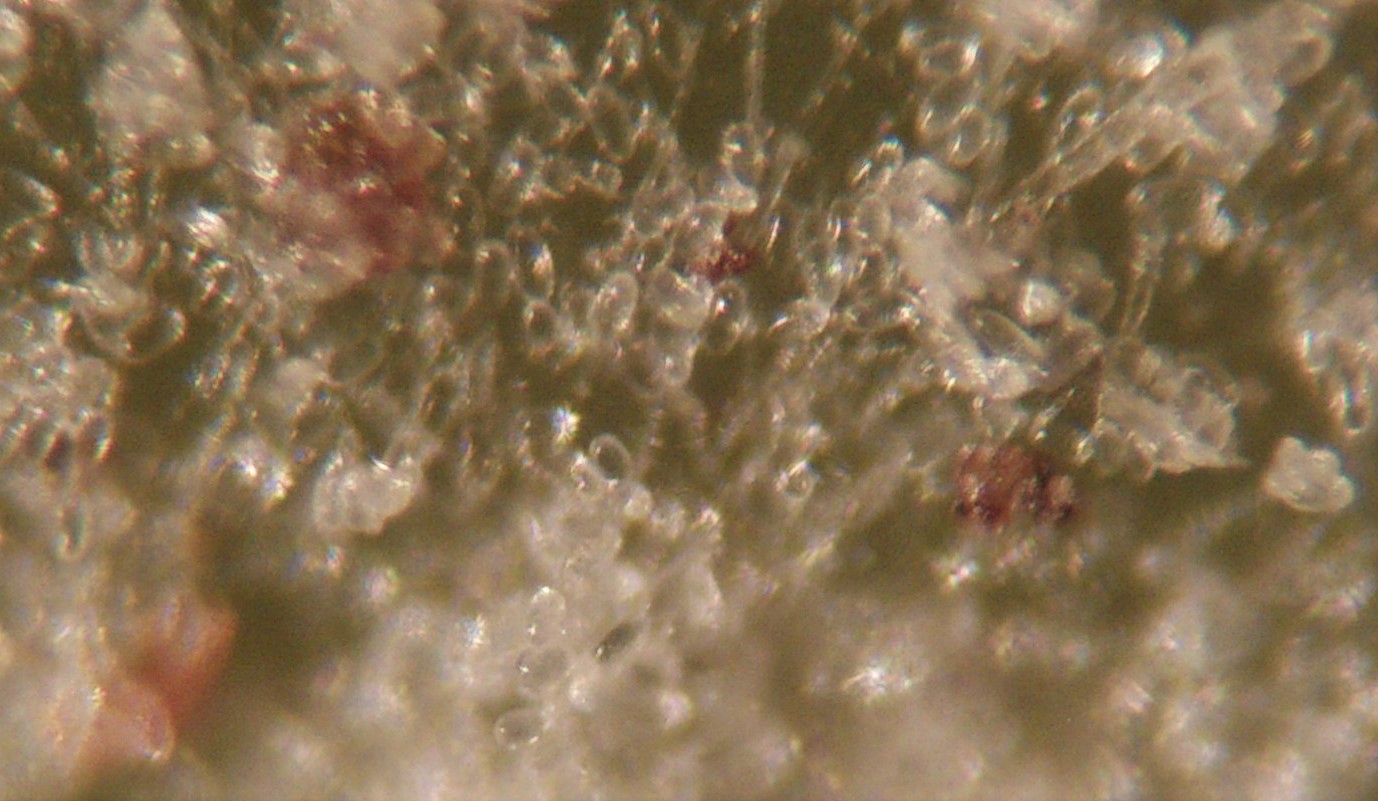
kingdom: Fungi
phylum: Ascomycota
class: Leotiomycetes
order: Helotiales
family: Erysiphaceae
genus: Erysiphe
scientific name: Erysiphe alphitoides
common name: ege-meldug
